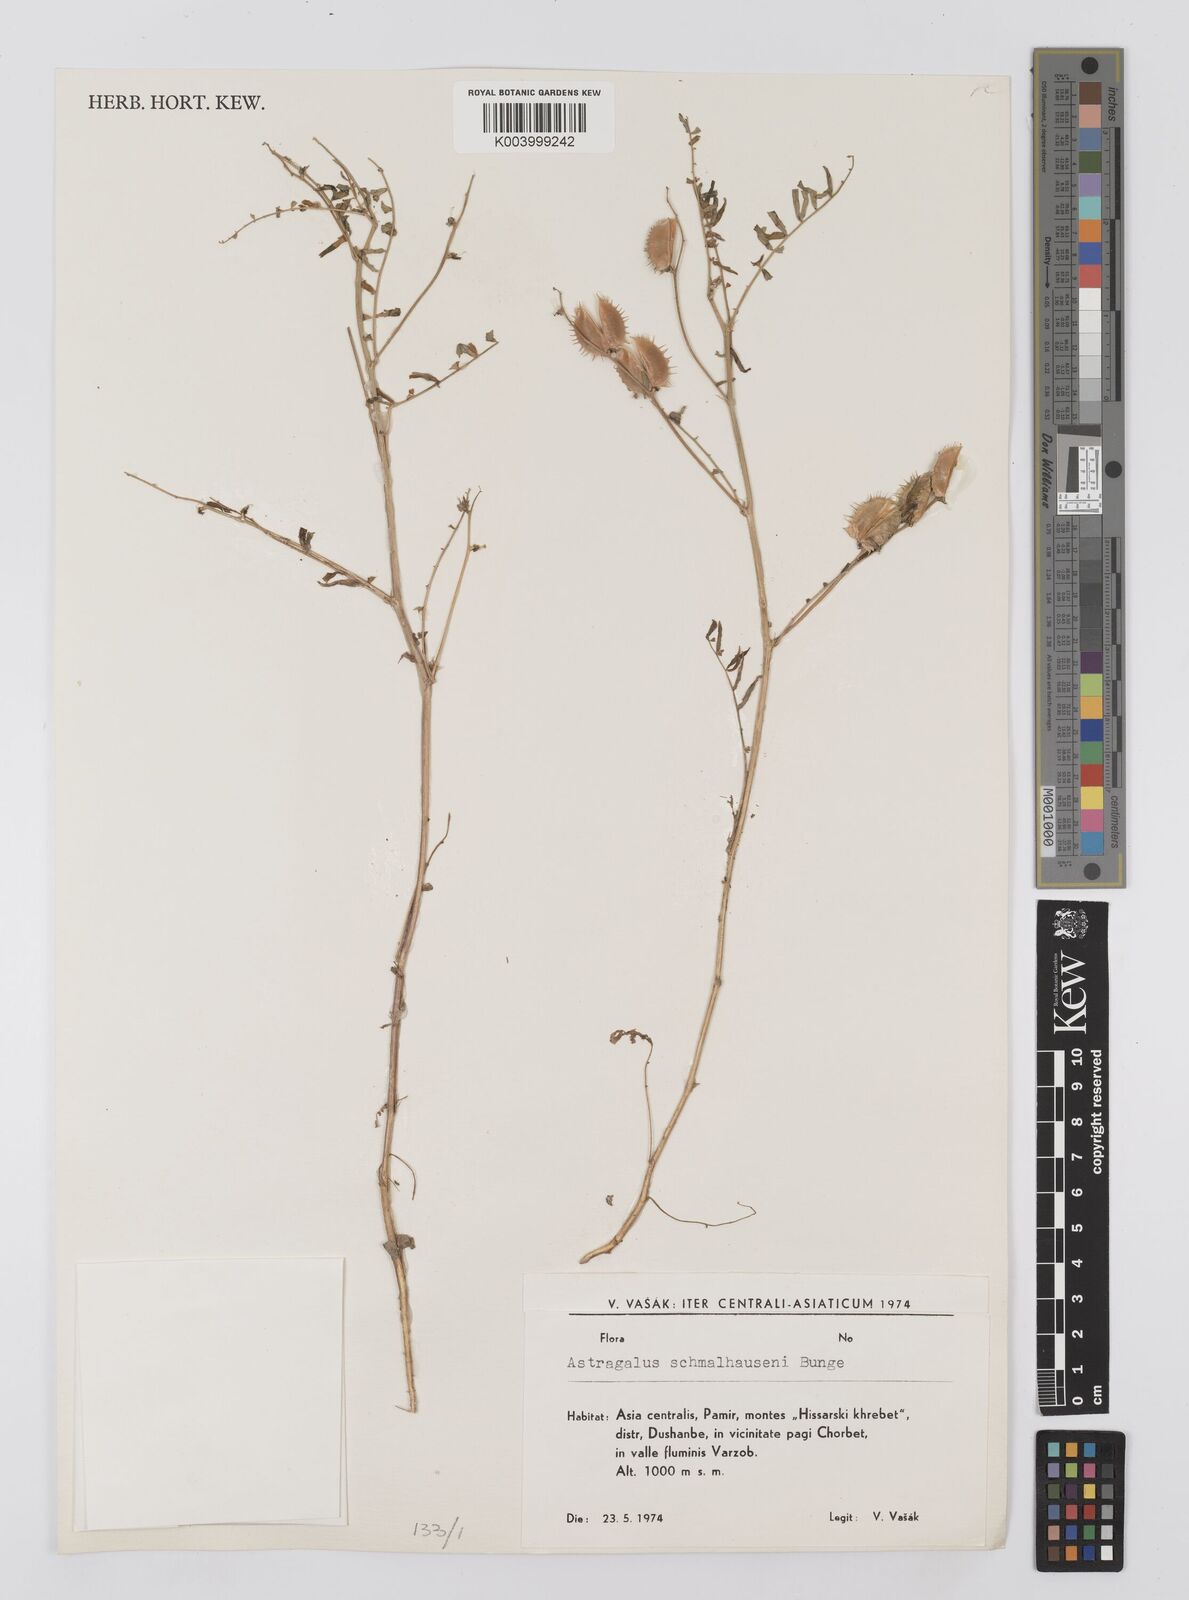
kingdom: Plantae
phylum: Tracheophyta
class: Magnoliopsida
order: Fabales
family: Fabaceae
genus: Astragalus
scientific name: Astragalus schmalhausenii
